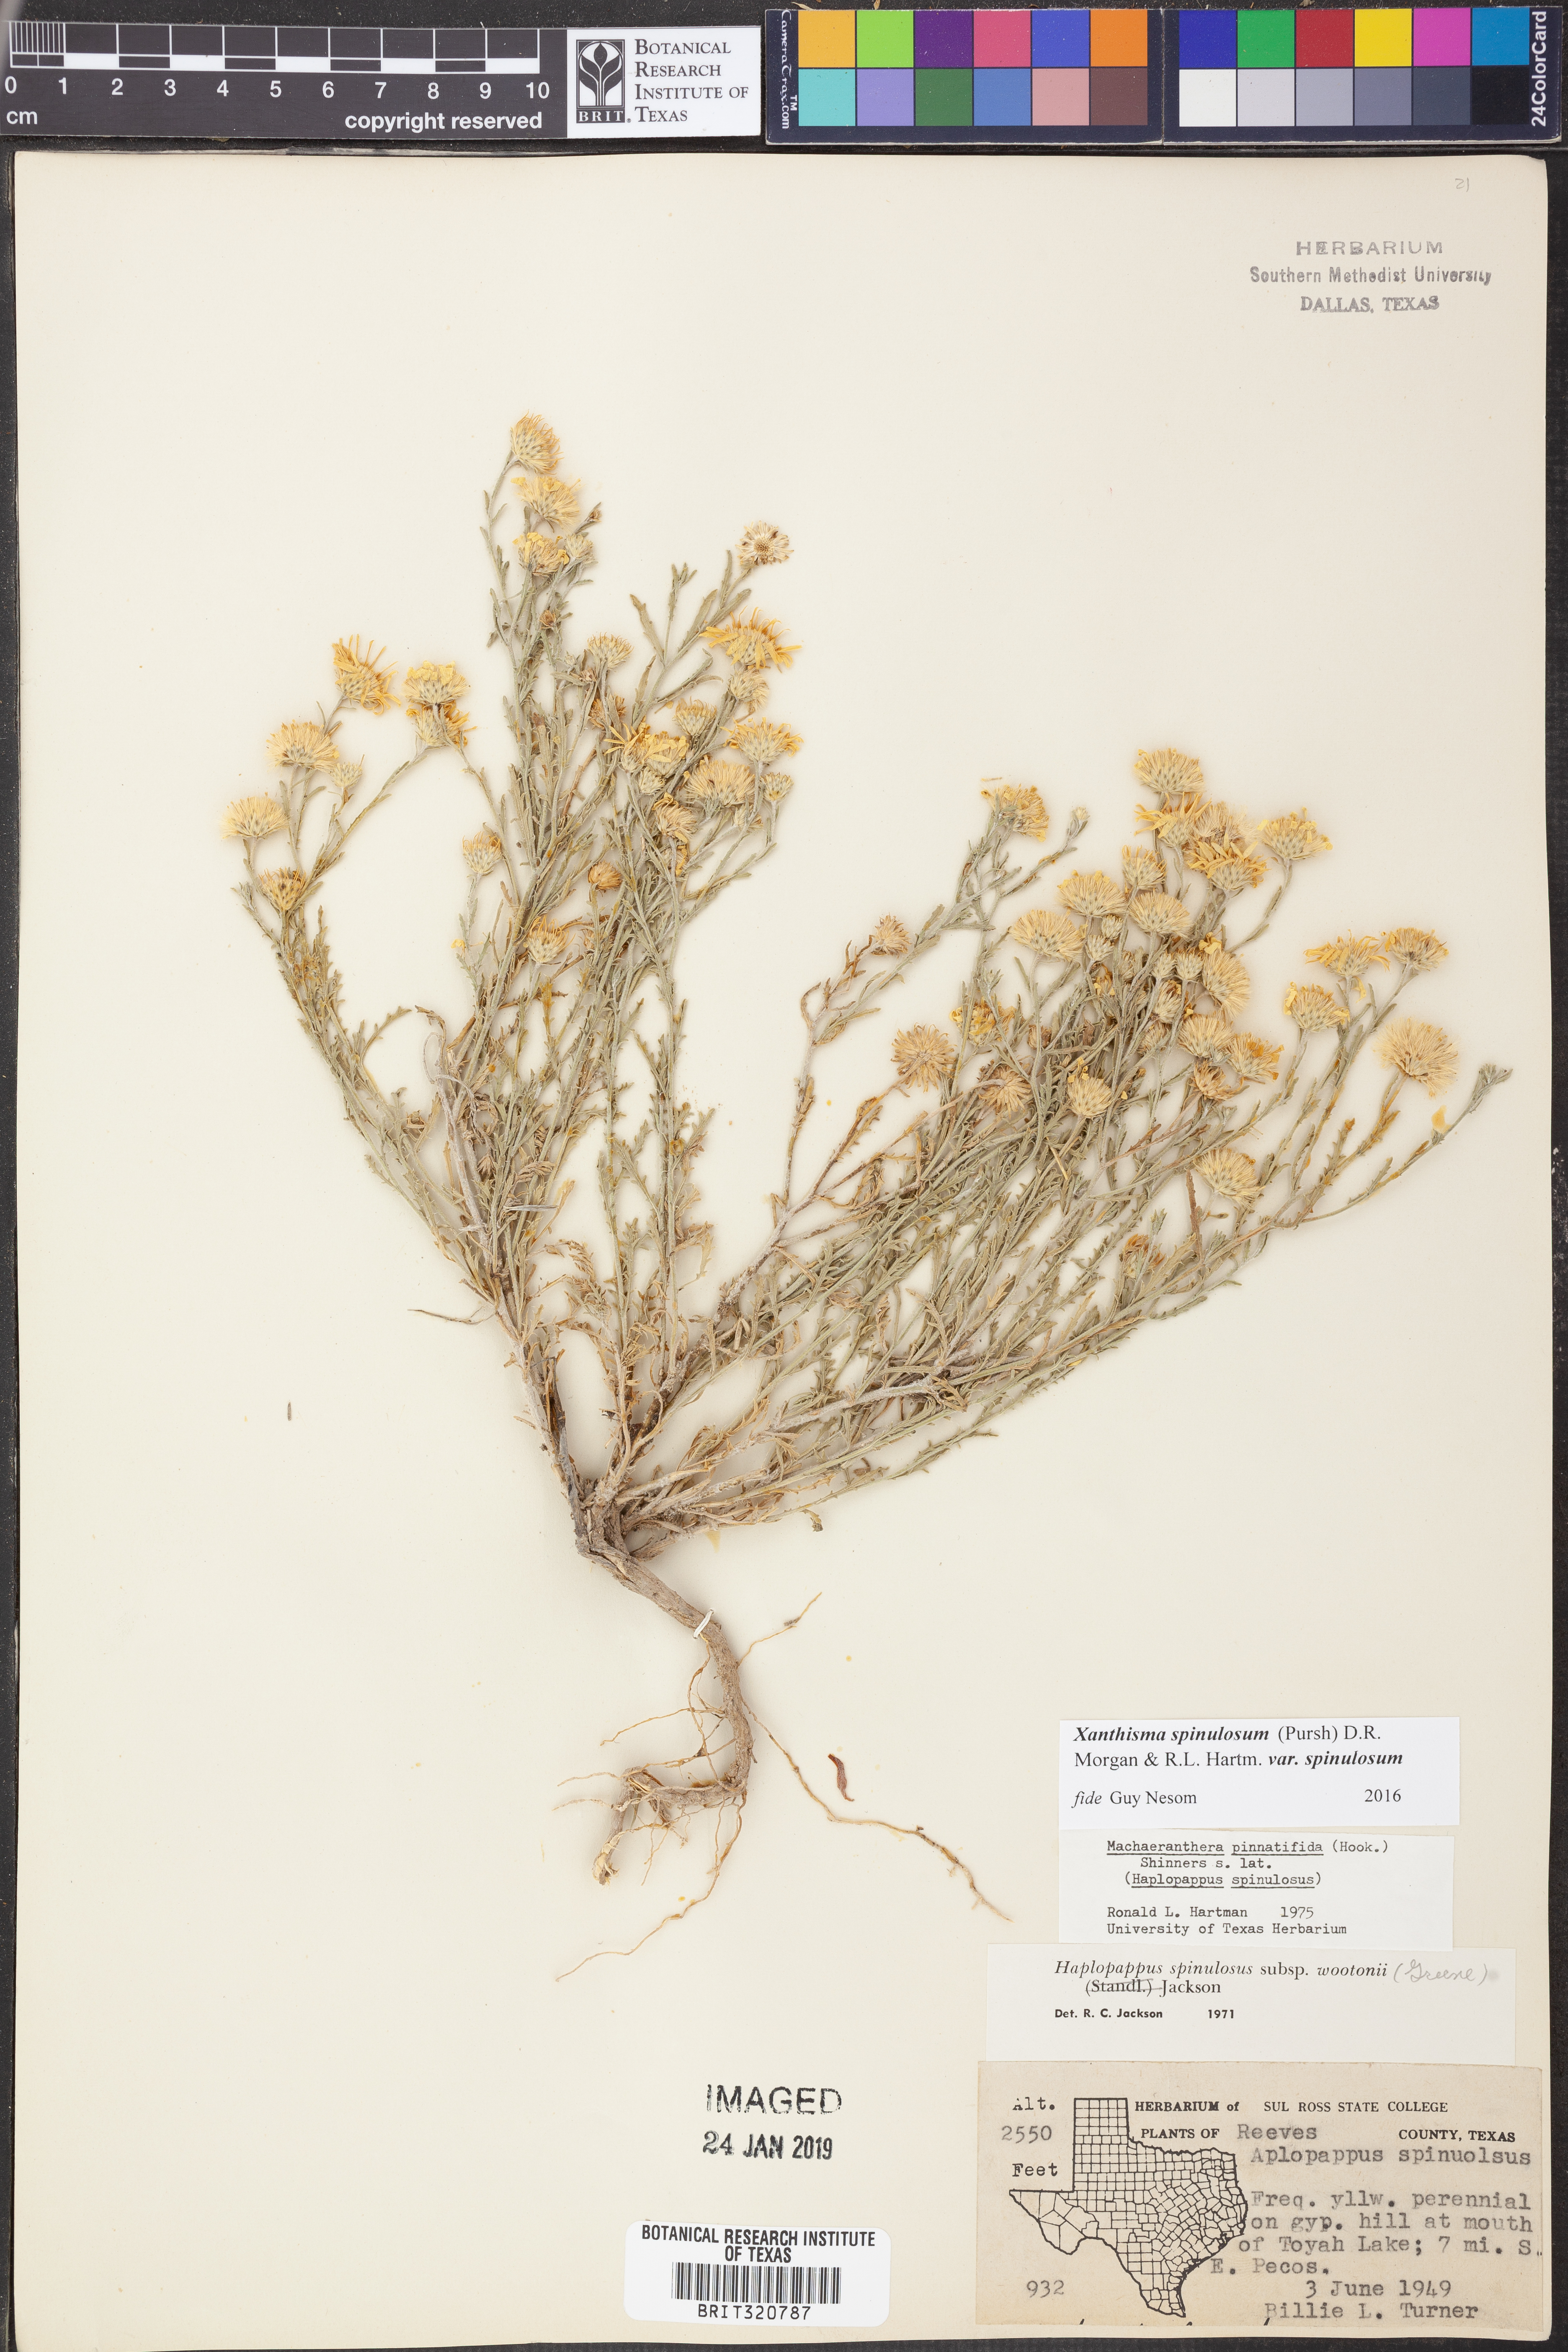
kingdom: Plantae
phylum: Tracheophyta
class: Magnoliopsida
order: Asterales
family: Asteraceae
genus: Xanthisma
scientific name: Xanthisma spinulosum
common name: Spiny goldenweed
